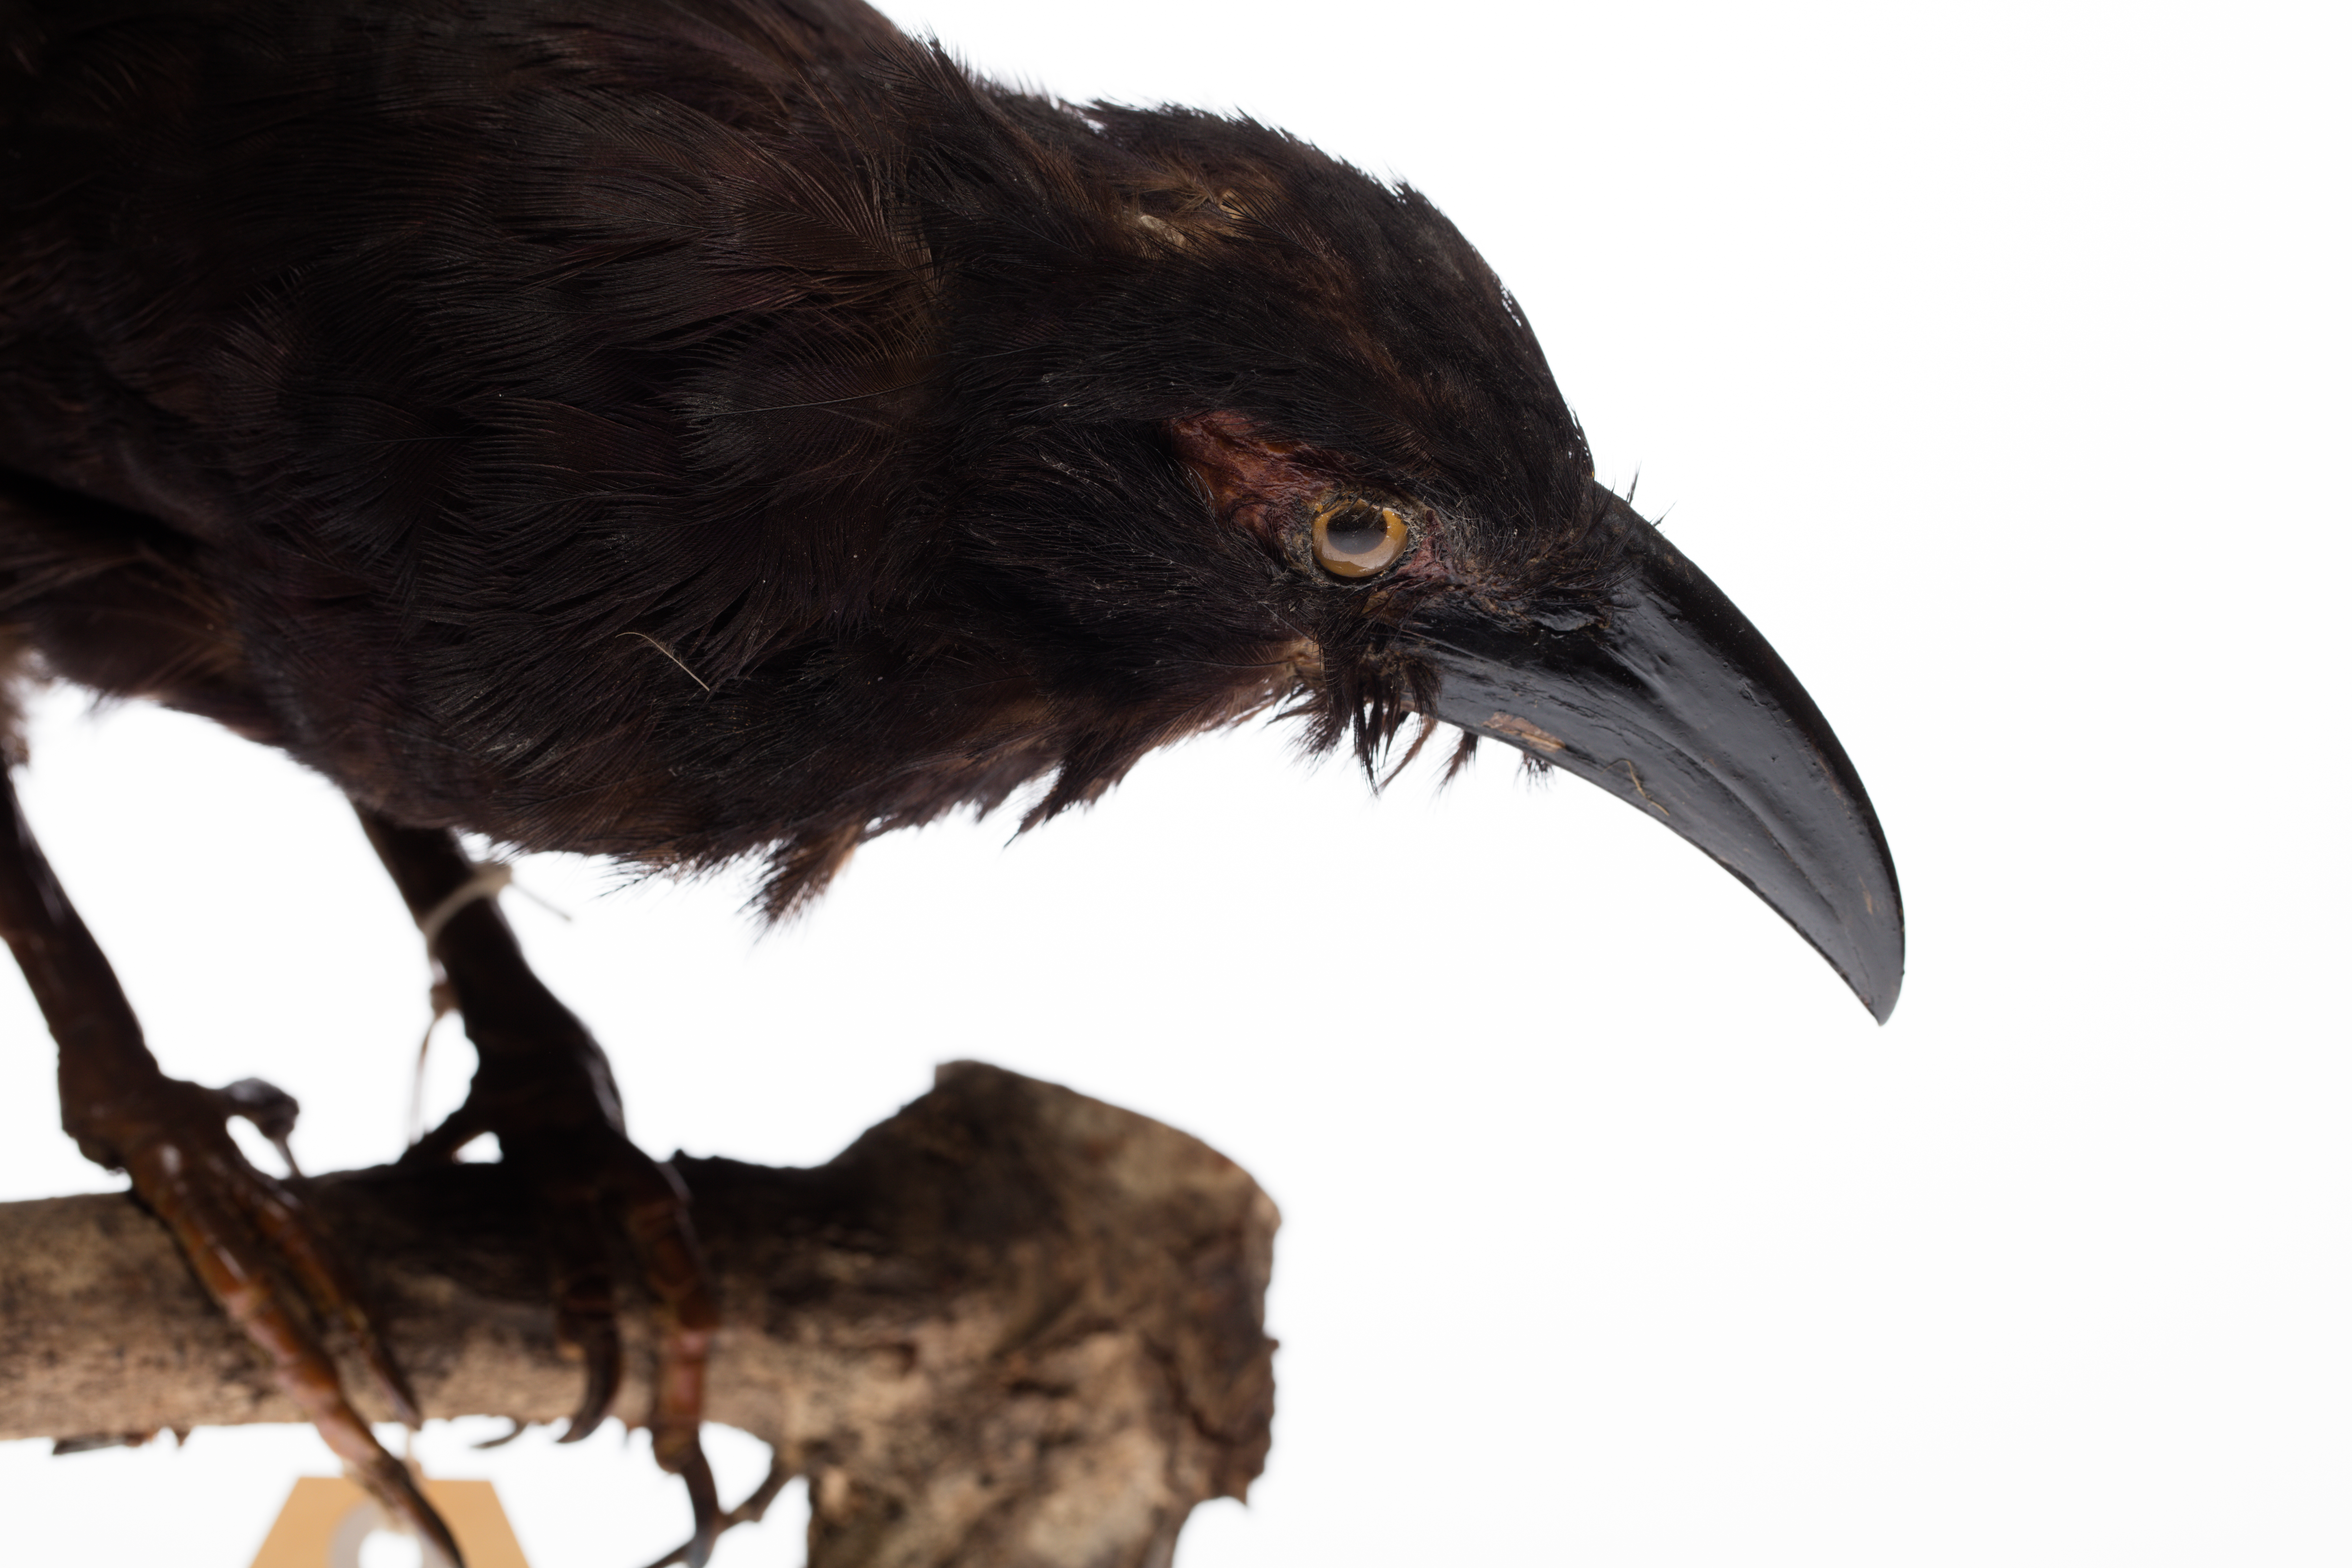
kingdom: Animalia
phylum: Chordata
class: Aves
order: Cuculiformes
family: Cuculidae
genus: Centropus
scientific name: Centropus violaceus
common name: Violaceous coucal
